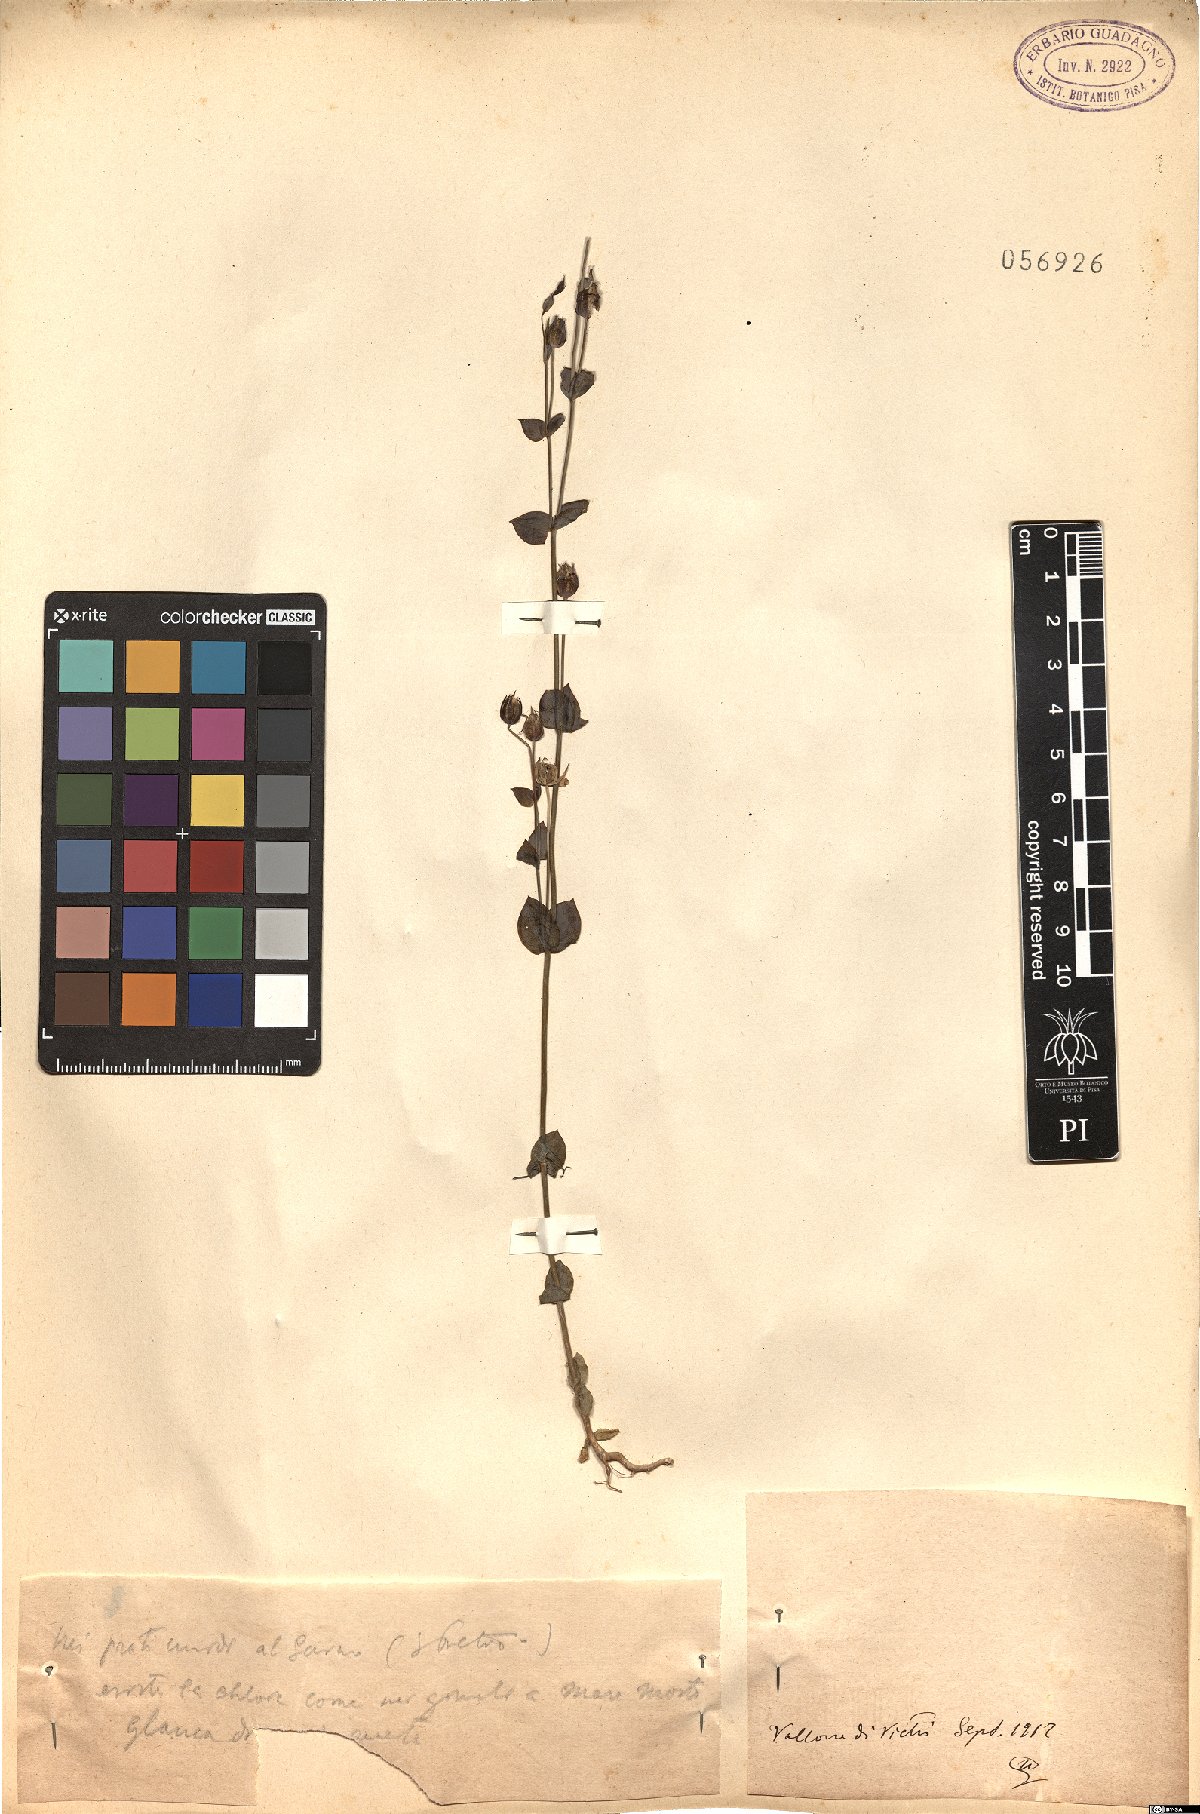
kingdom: Plantae
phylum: Tracheophyta
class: Magnoliopsida
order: Gentianales
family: Gentianaceae
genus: Blackstonia
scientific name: Blackstonia
